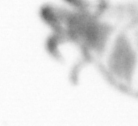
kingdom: Animalia
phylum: Annelida
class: Polychaeta
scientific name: Polychaeta
